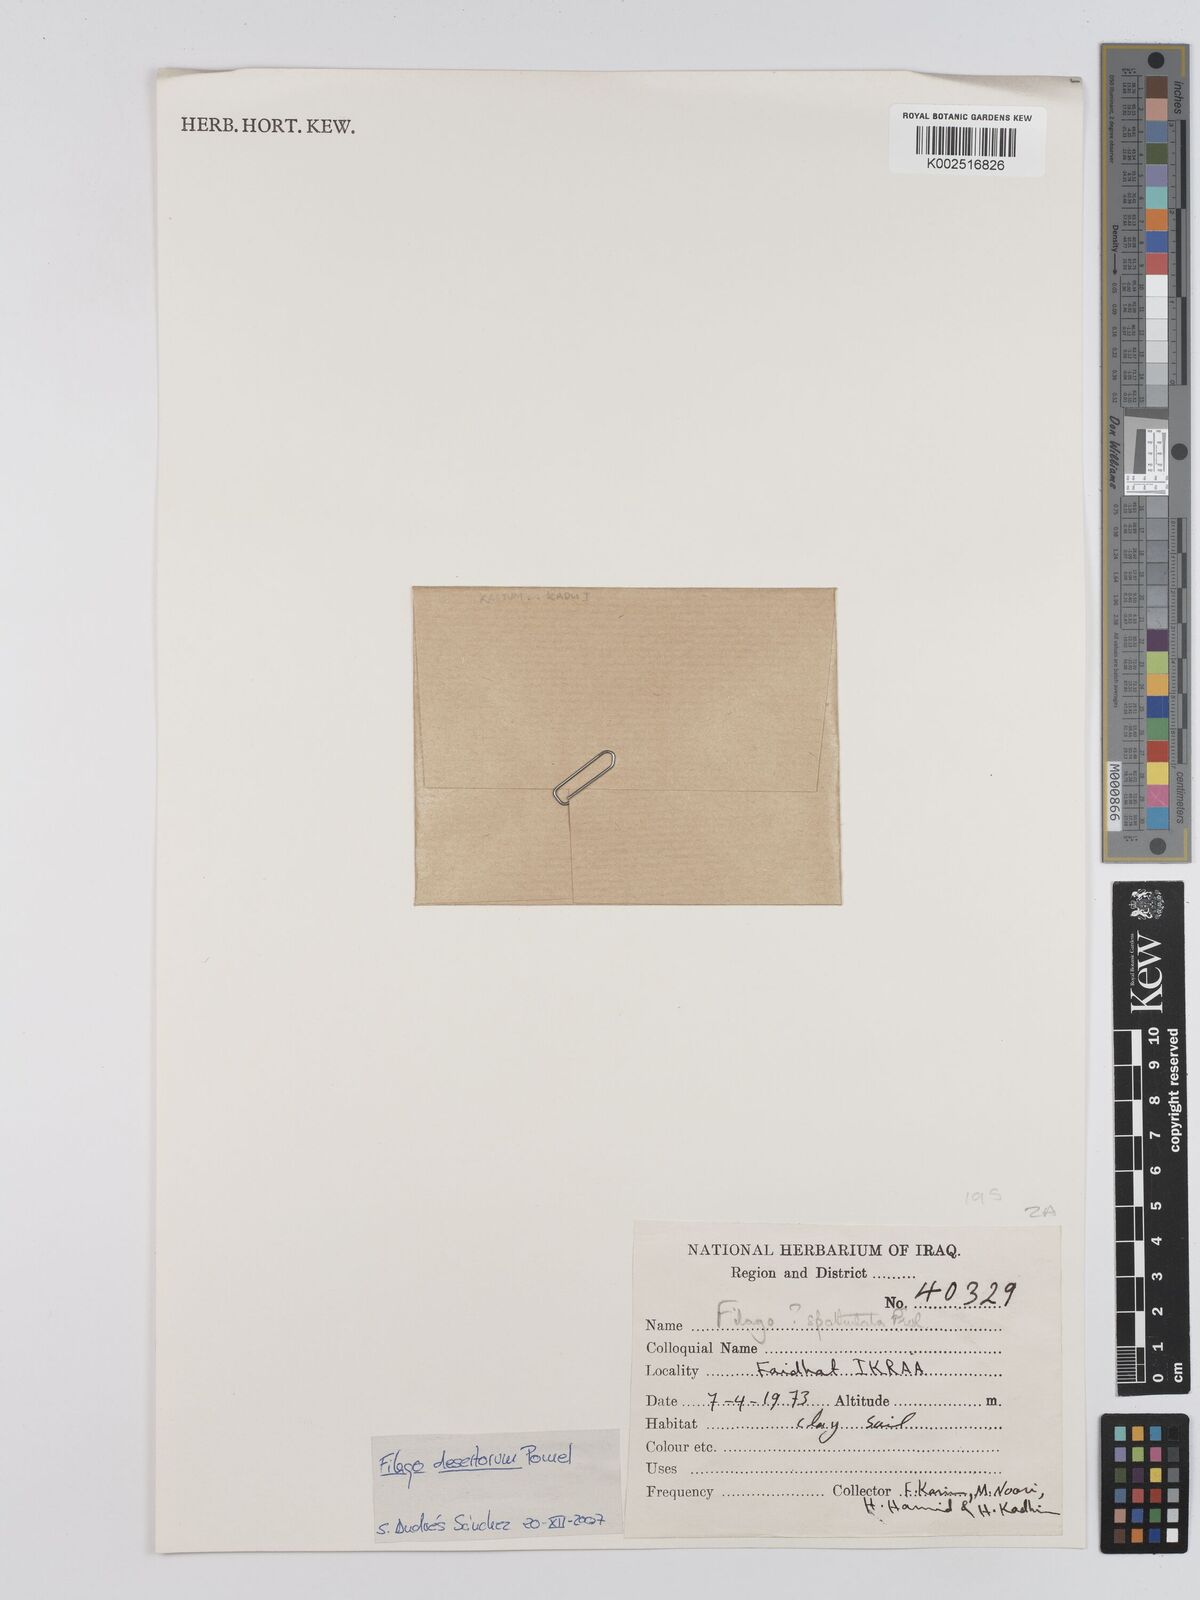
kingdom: Plantae
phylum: Tracheophyta
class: Magnoliopsida
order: Asterales
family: Asteraceae
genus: Filago
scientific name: Filago pyramidata
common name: Broad-leaved cudweed
